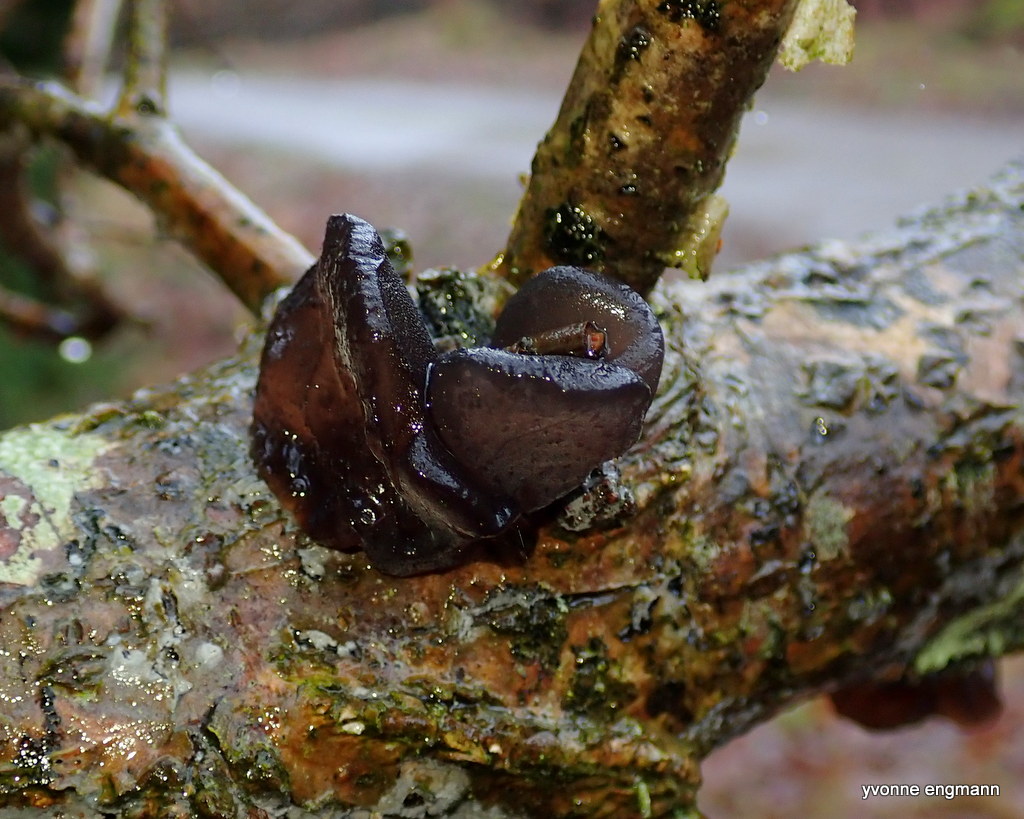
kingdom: Fungi
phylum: Basidiomycota
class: Agaricomycetes
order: Auriculariales
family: Auriculariaceae
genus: Exidia
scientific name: Exidia glandulosa
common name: ege-bævretop
